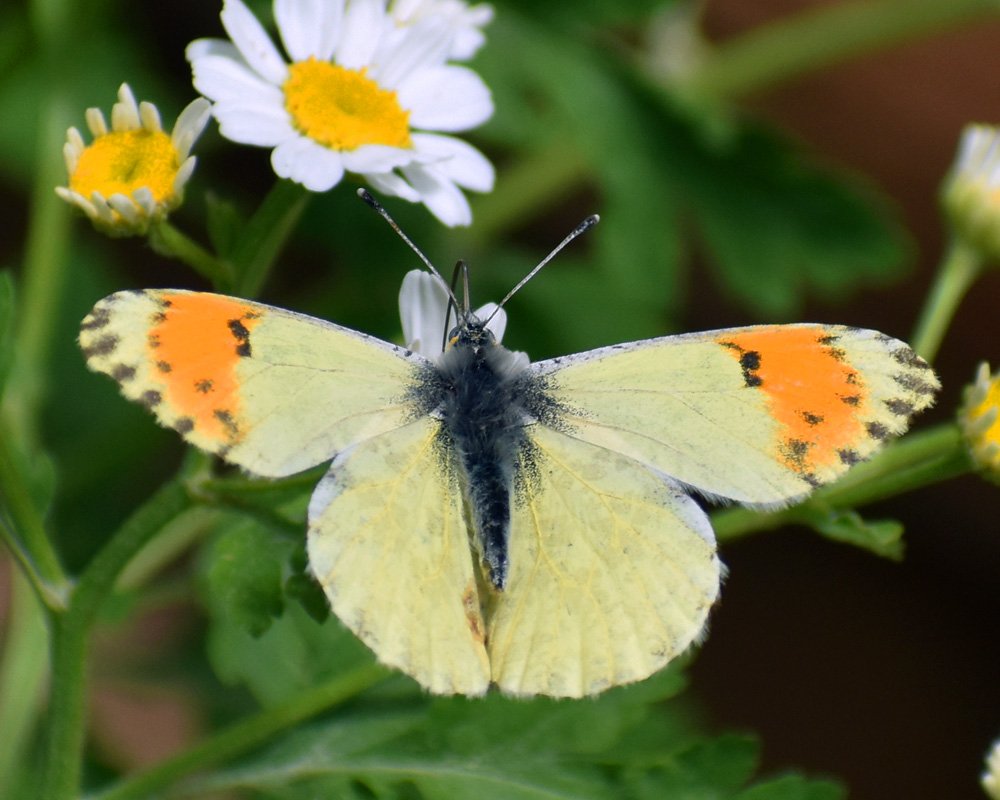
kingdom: Animalia
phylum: Arthropoda
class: Insecta
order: Lepidoptera
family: Pieridae
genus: Anthocharis
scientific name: Anthocharis sara
